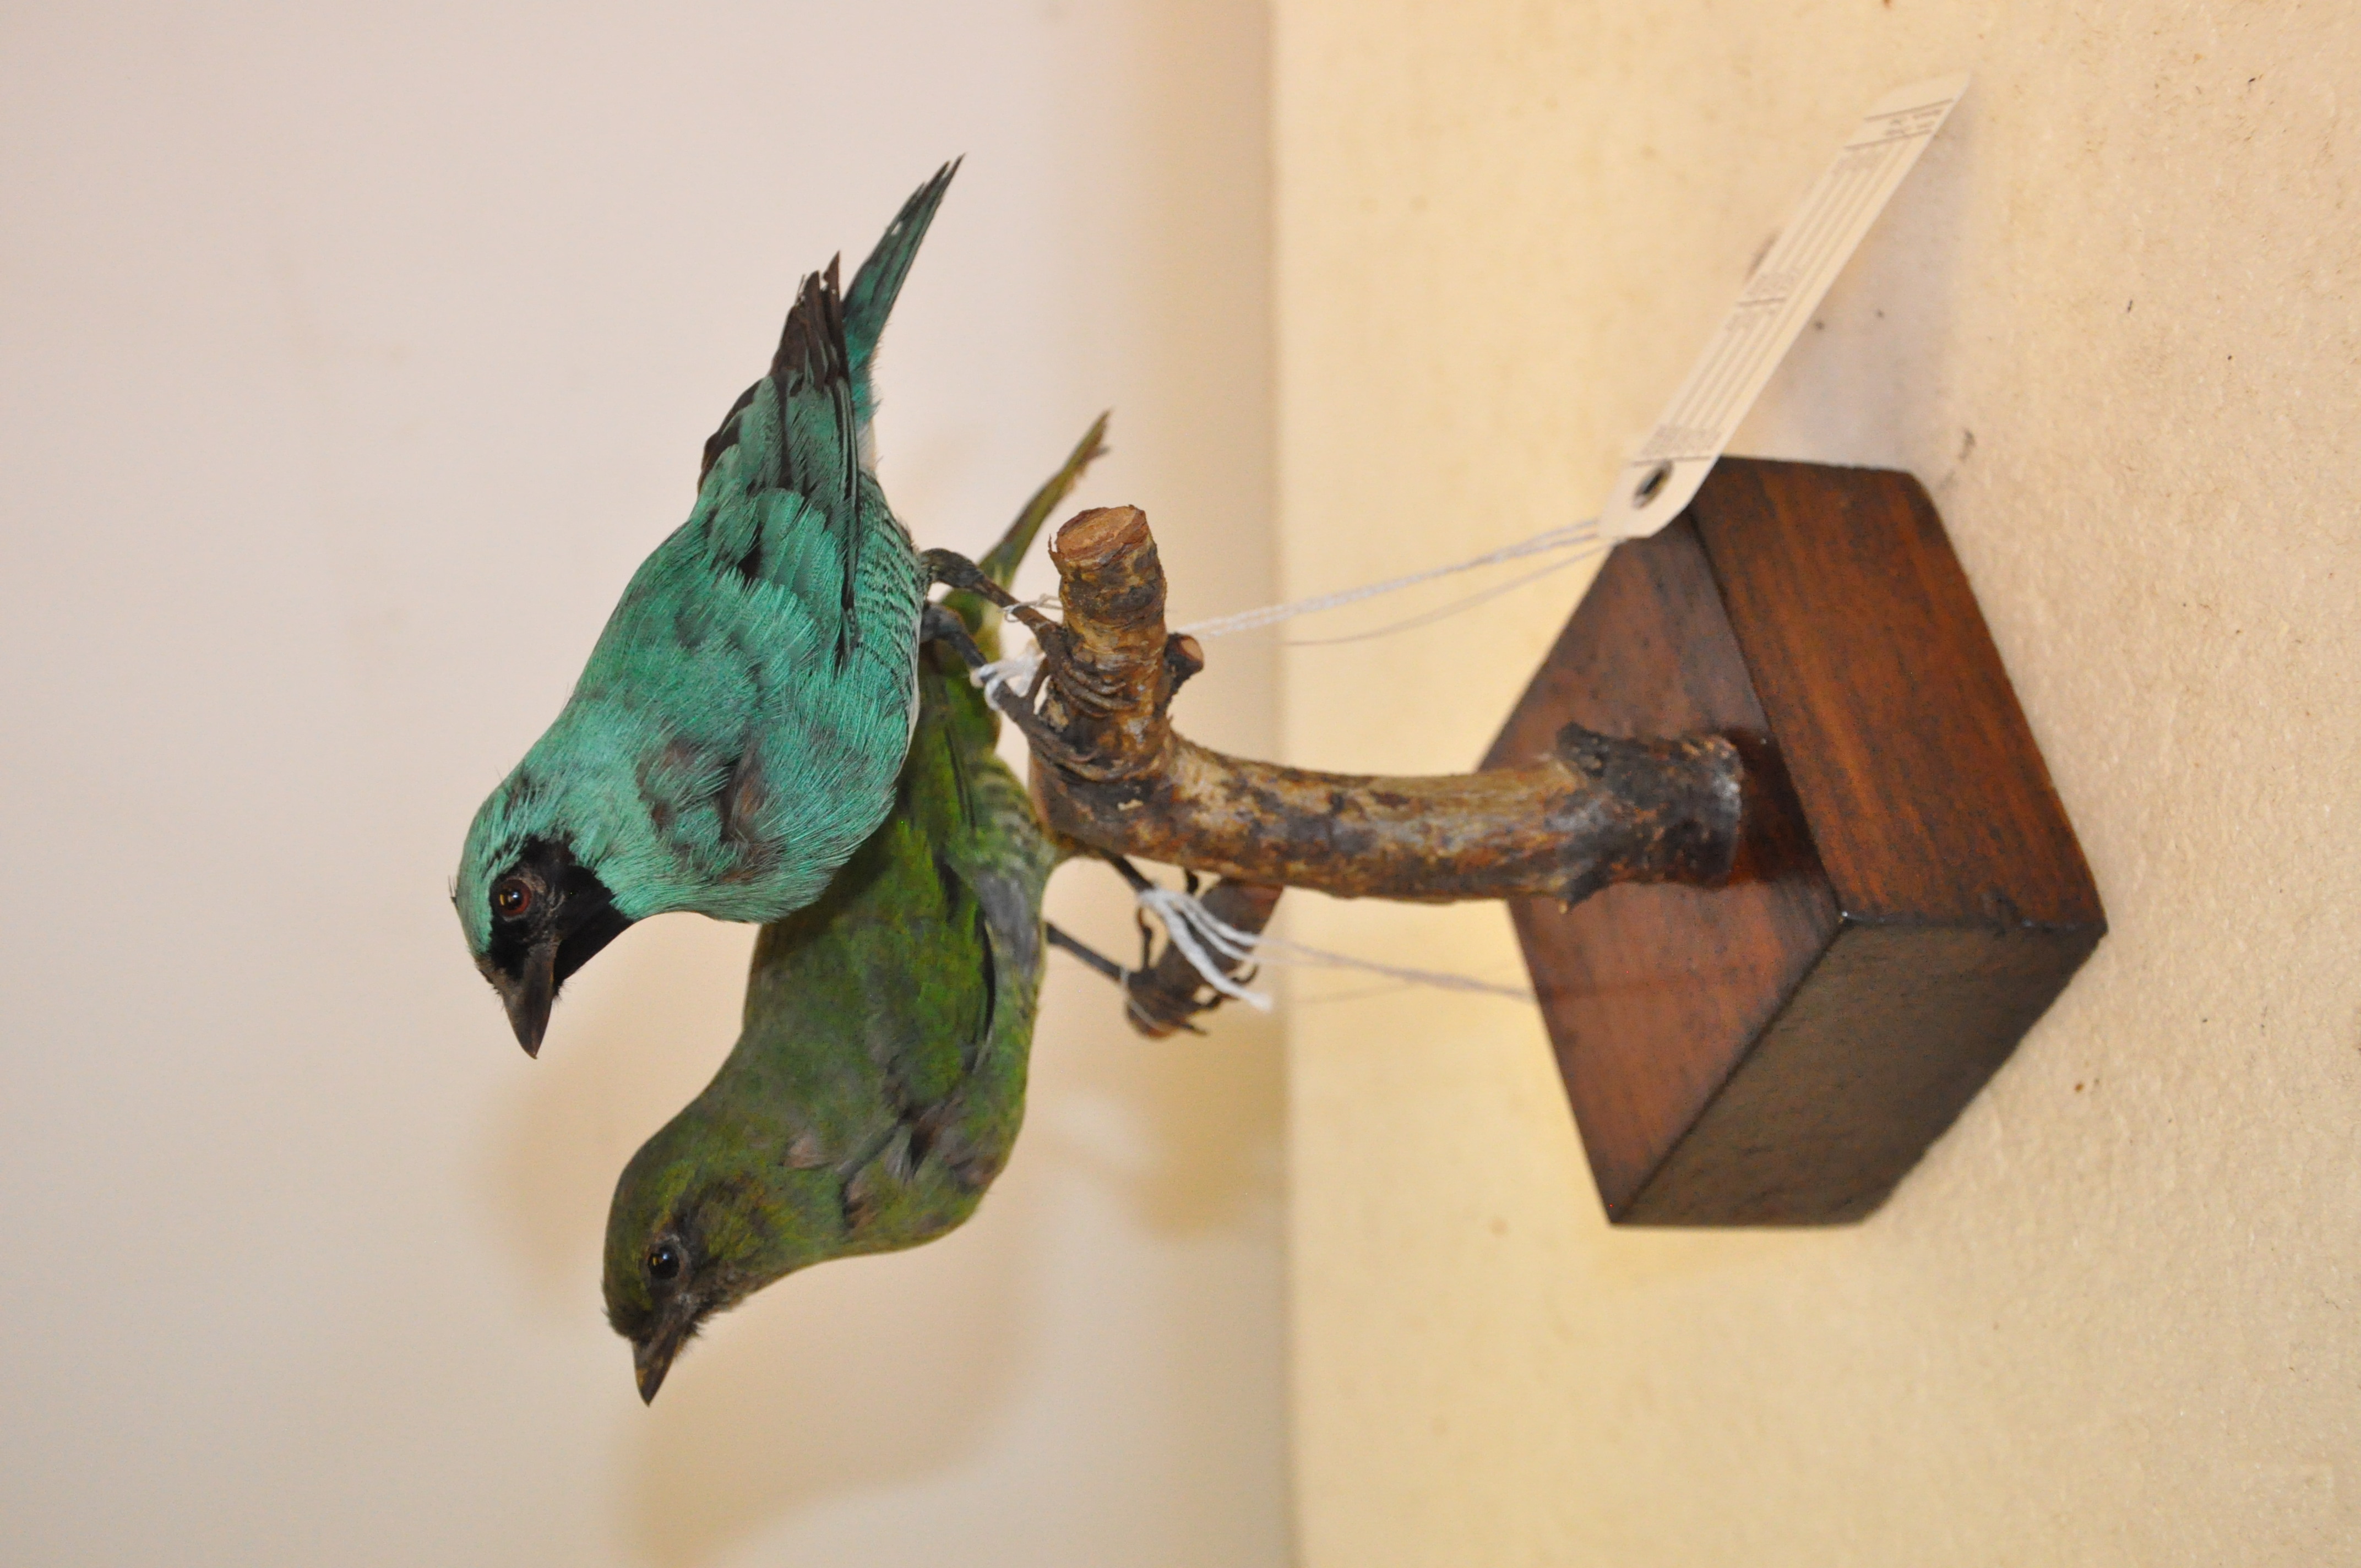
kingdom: Animalia
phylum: Chordata
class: Aves
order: Passeriformes
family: Thraupidae
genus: Tersina
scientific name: Tersina viridis
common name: Swallow tanager
